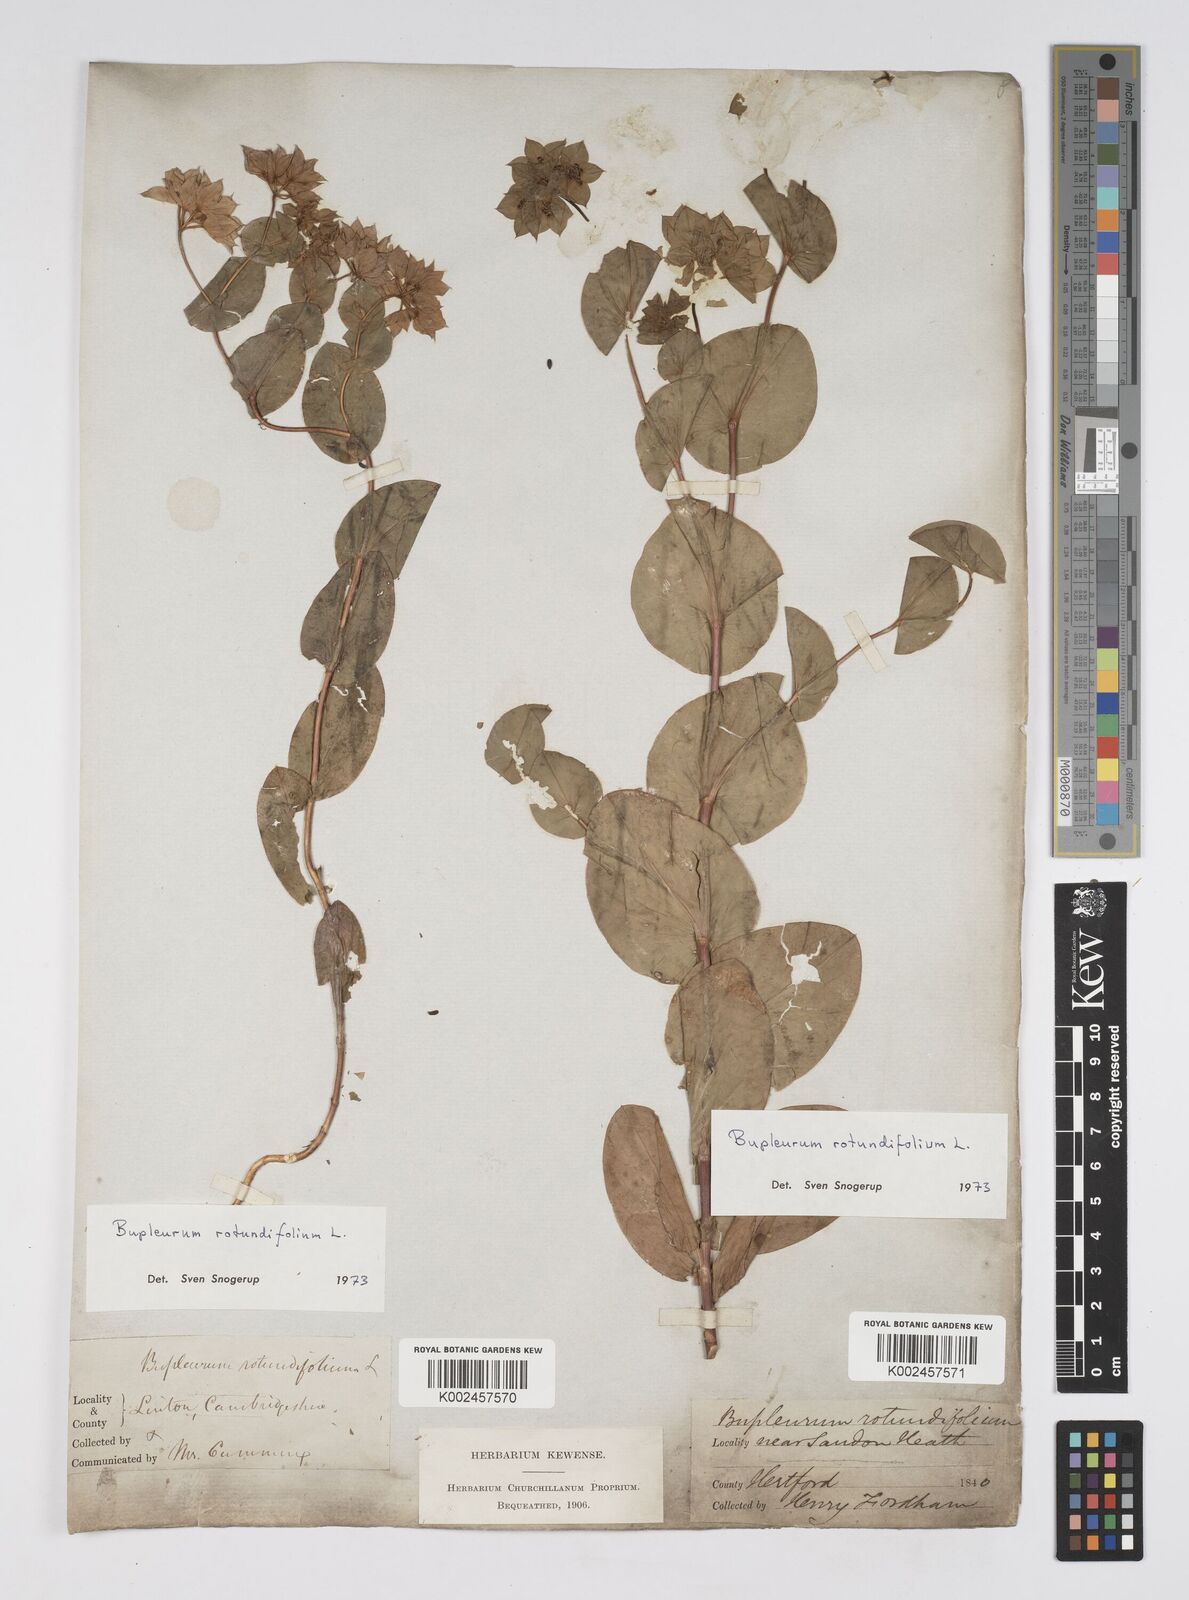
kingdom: Plantae
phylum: Tracheophyta
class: Magnoliopsida
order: Apiales
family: Apiaceae
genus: Bupleurum
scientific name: Bupleurum rotundifolium
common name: Thorow-wax
